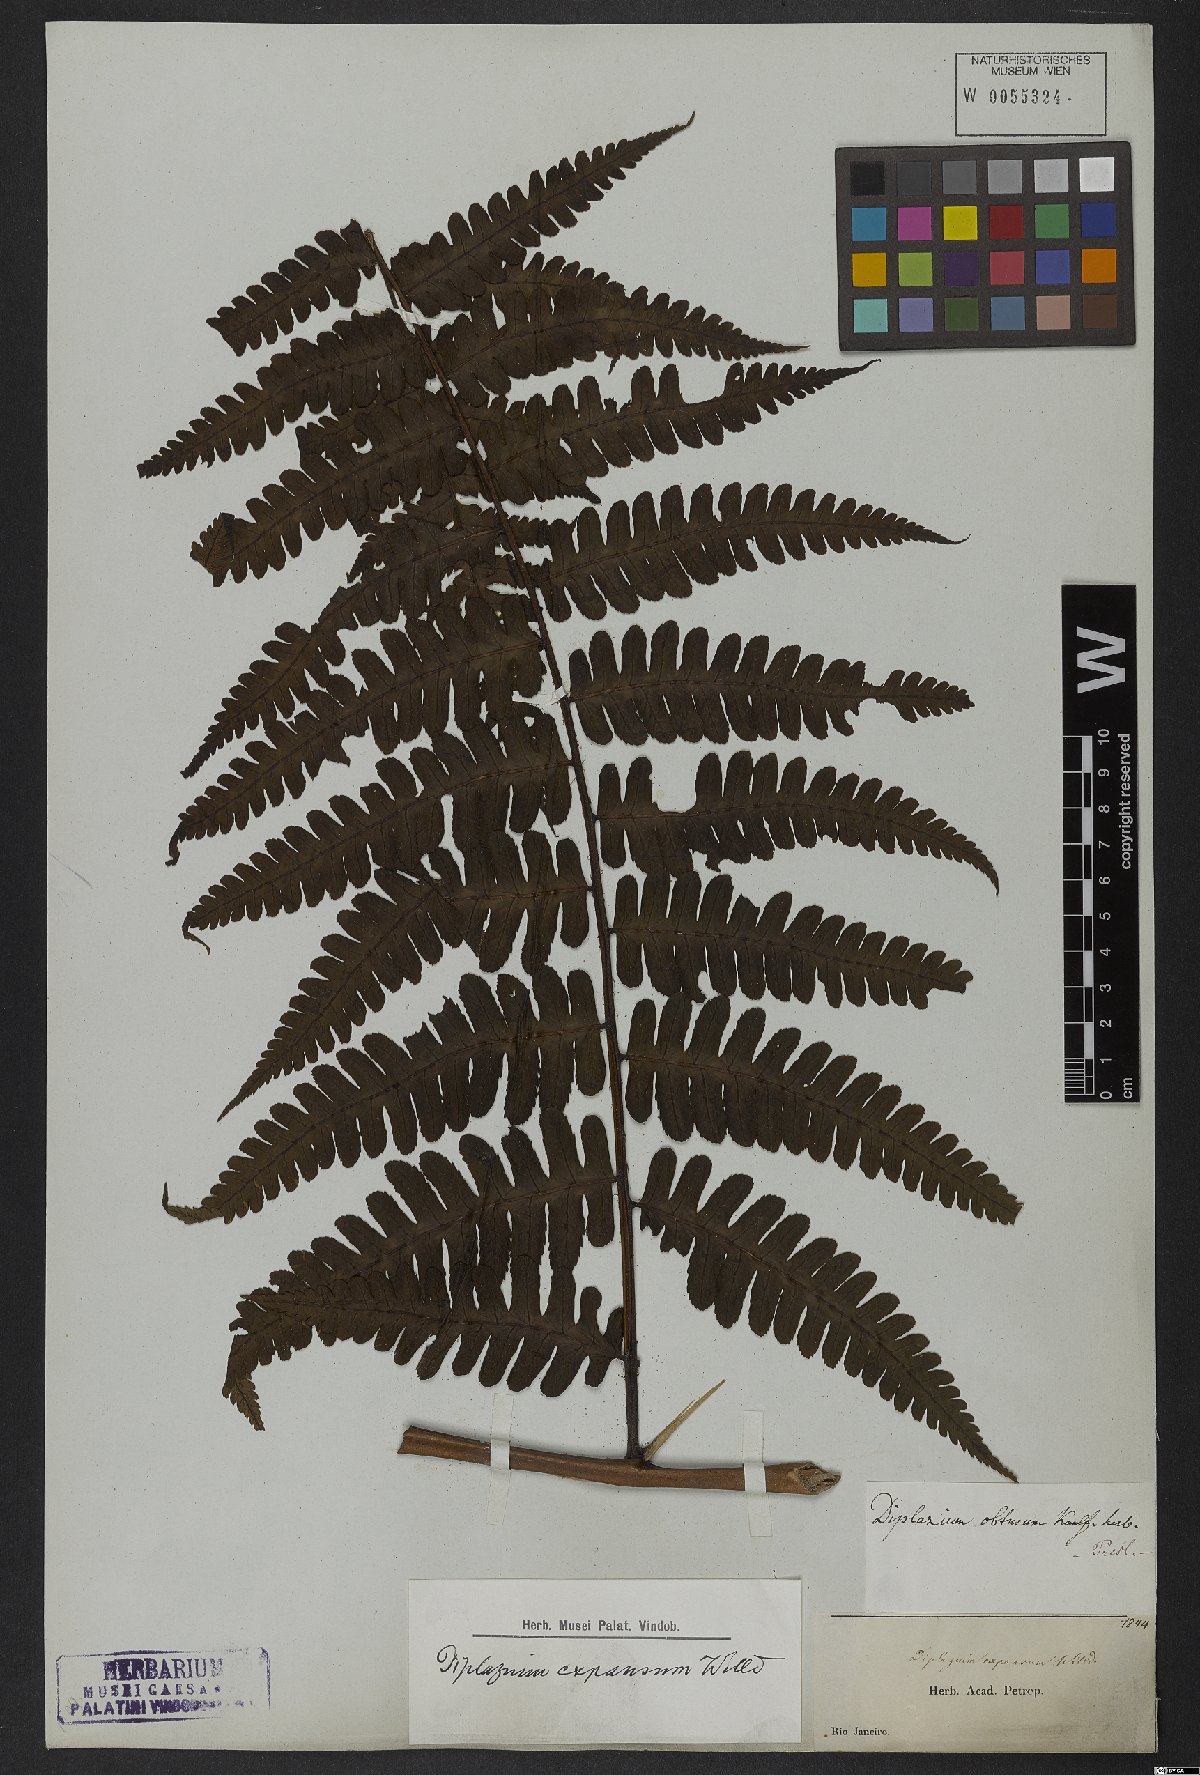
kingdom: Plantae
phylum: Tracheophyta
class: Polypodiopsida
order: Polypodiales
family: Athyriaceae
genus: Diplazium
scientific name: Diplazium expansum
